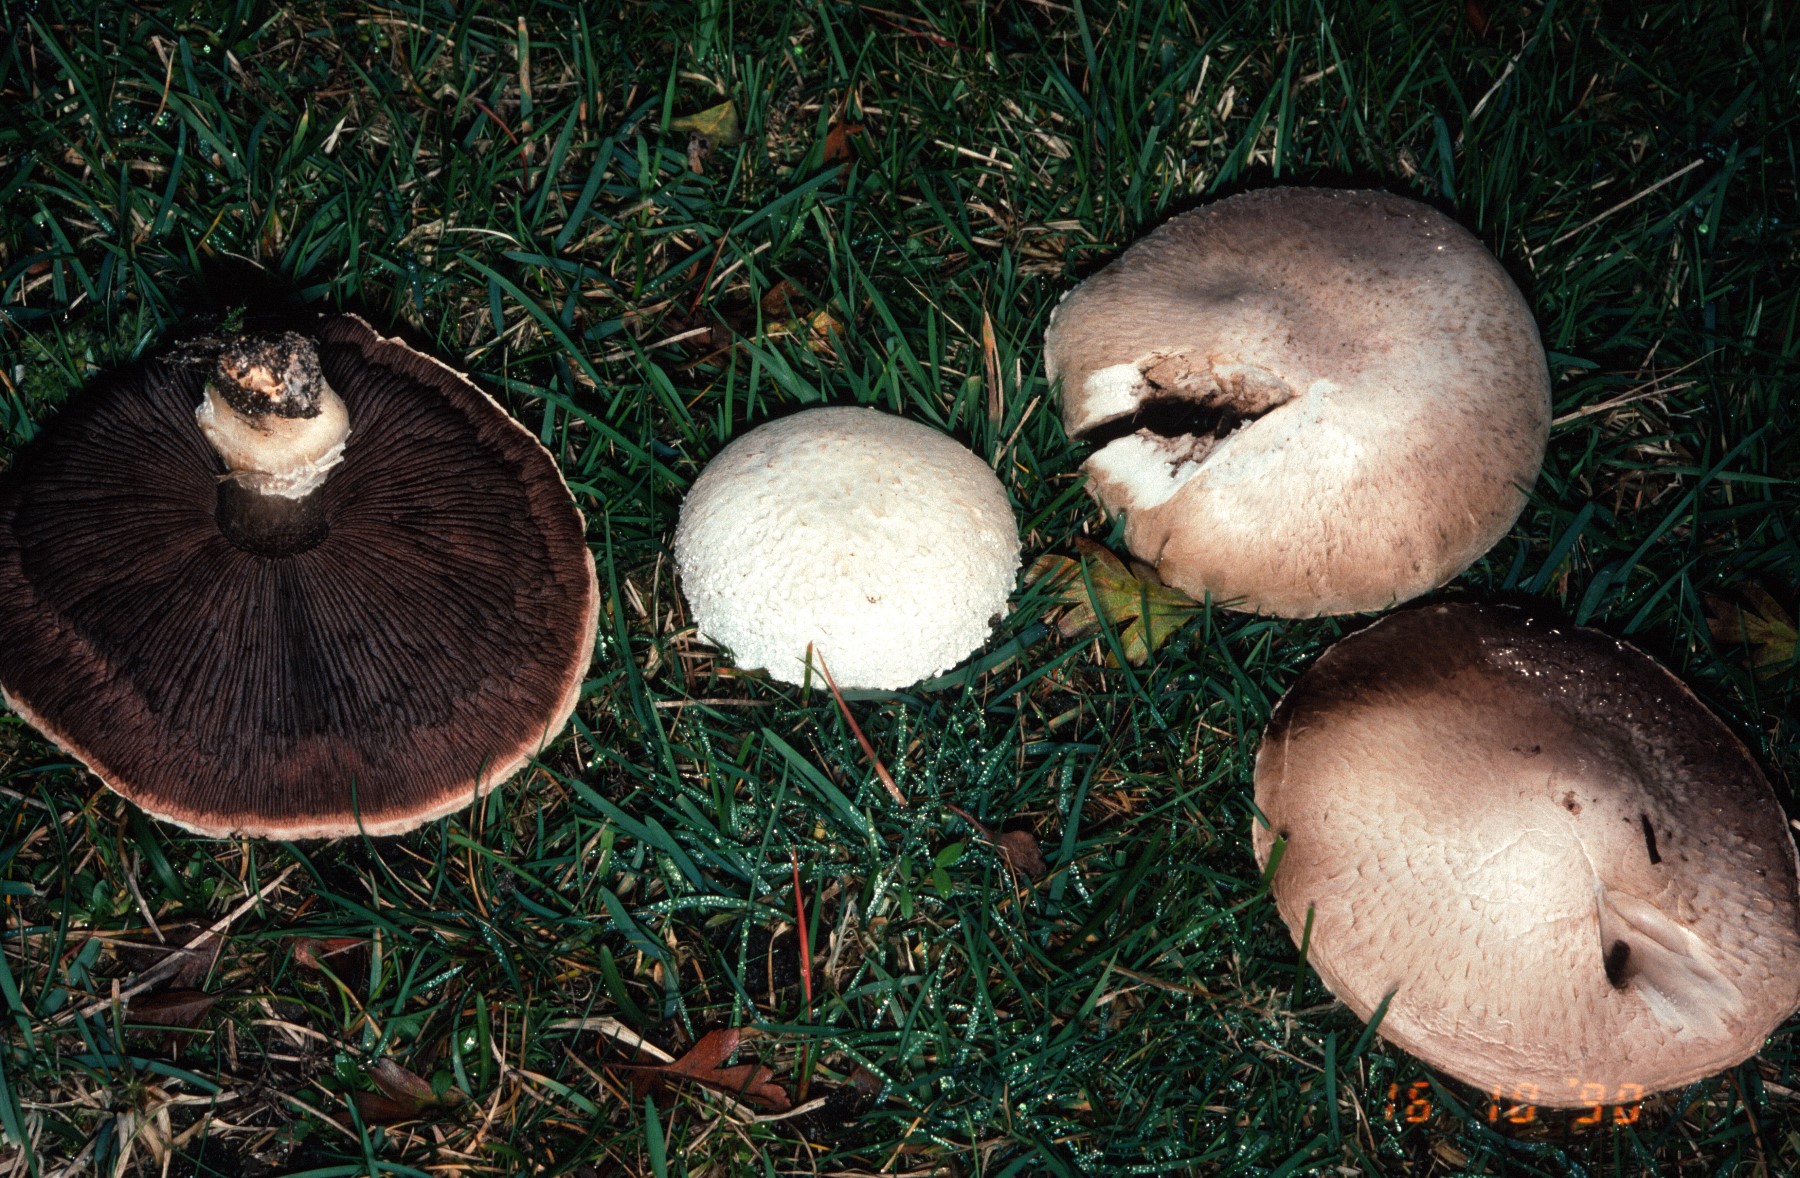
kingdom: Fungi
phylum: Basidiomycota
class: Agaricomycetes
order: Agaricales
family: Agaricaceae
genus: Agaricus
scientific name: Agaricus campestris
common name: mark-champignon
